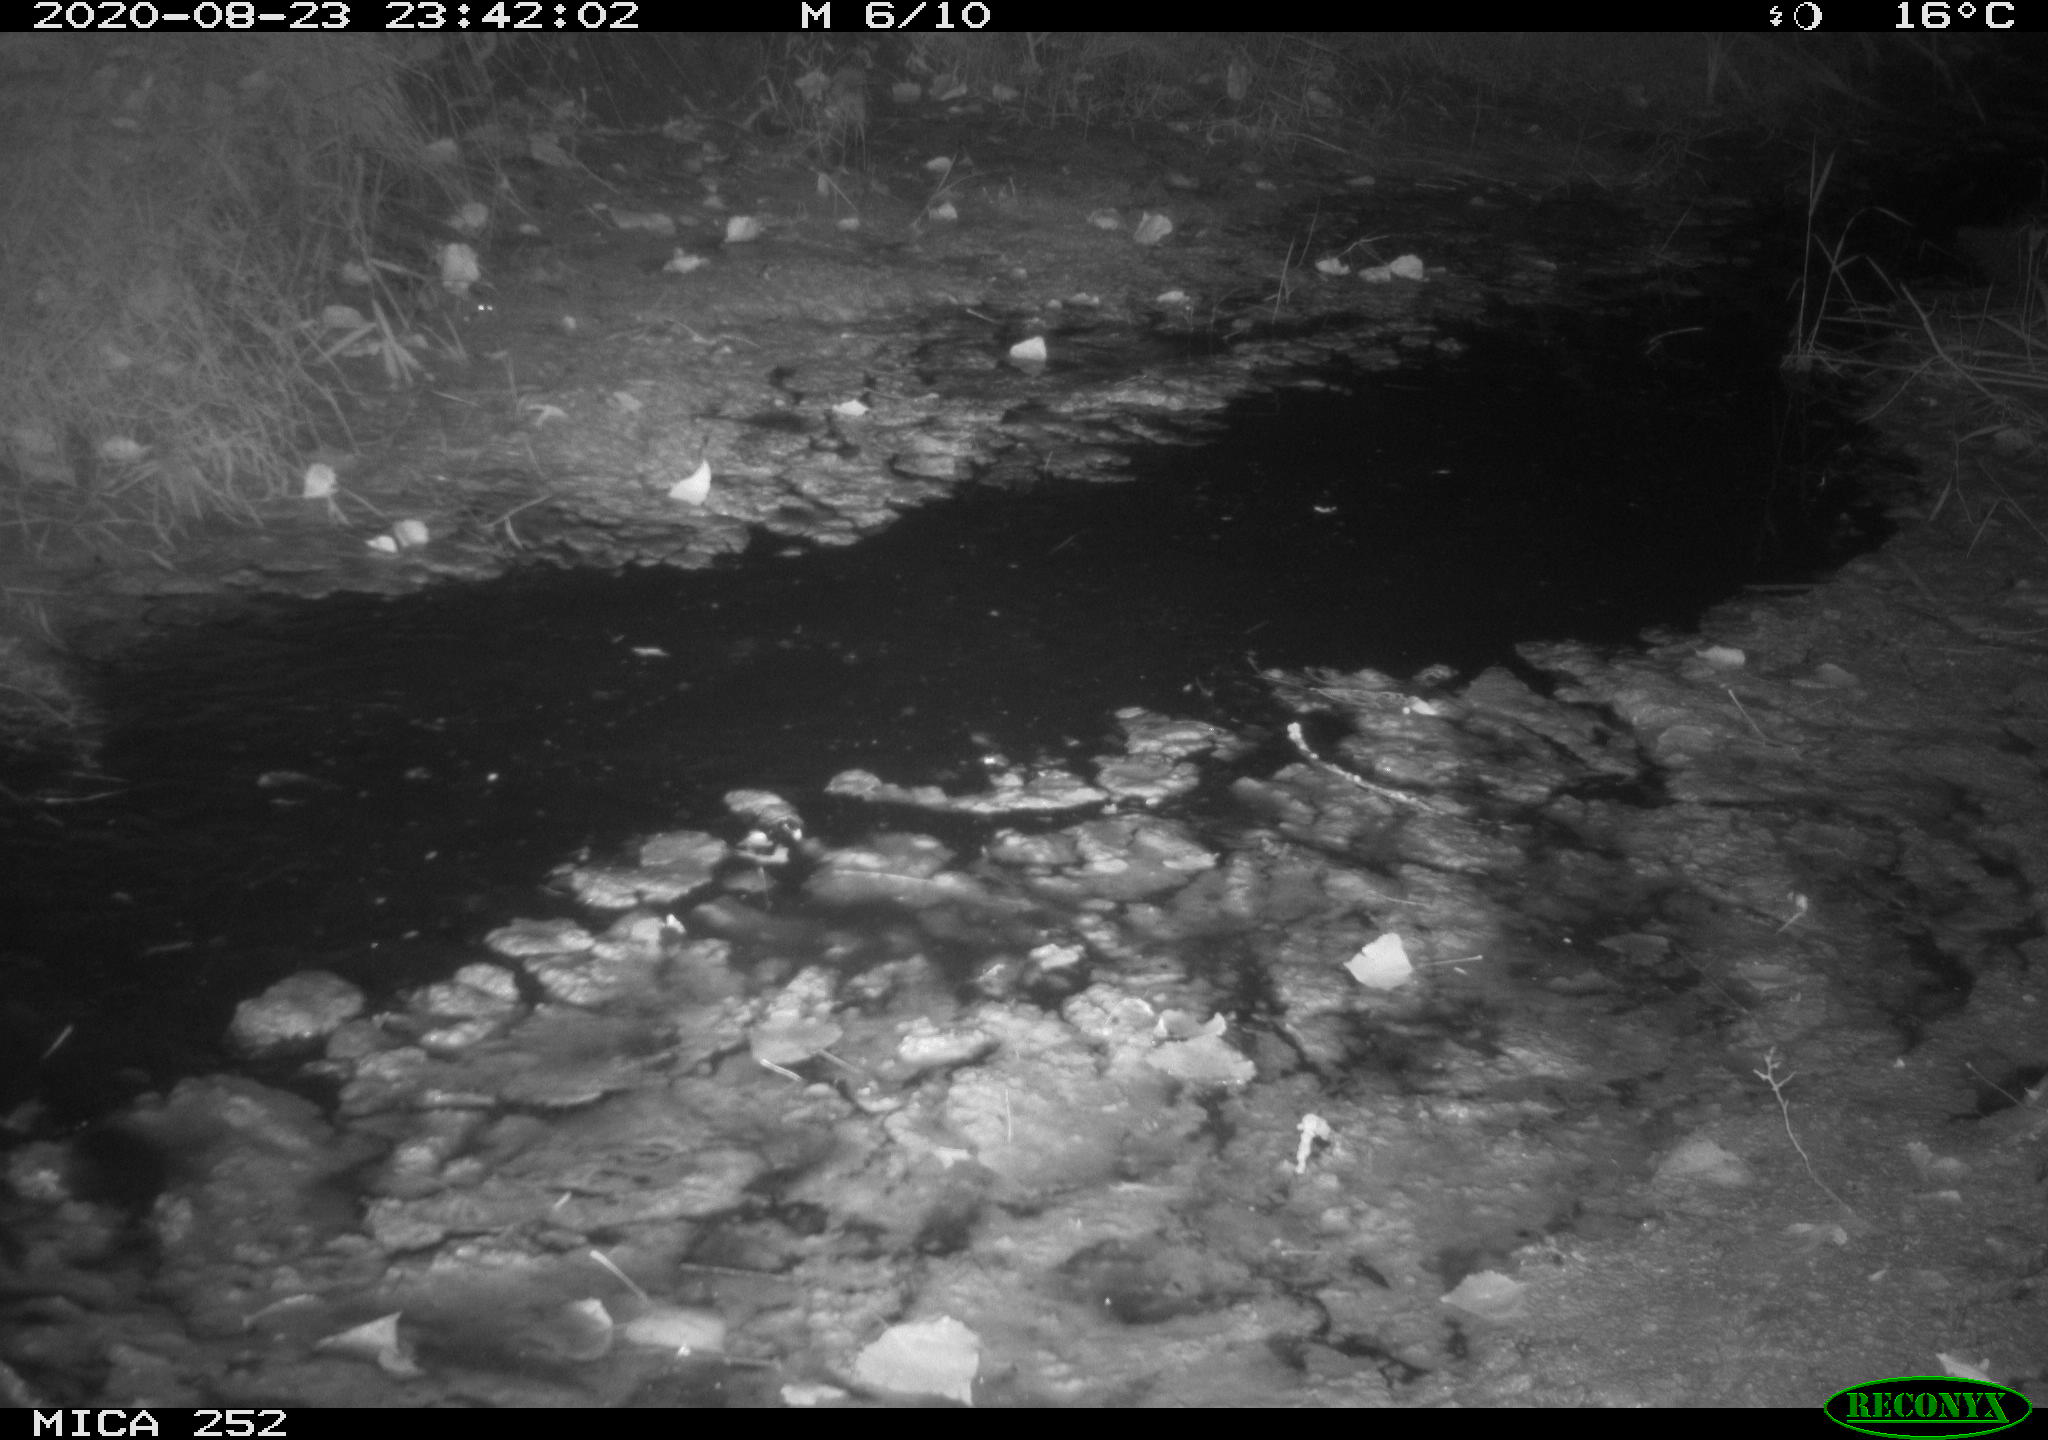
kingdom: Animalia
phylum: Chordata
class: Mammalia
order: Rodentia
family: Castoridae
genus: Castor
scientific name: Castor fiber
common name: Eurasian beaver
